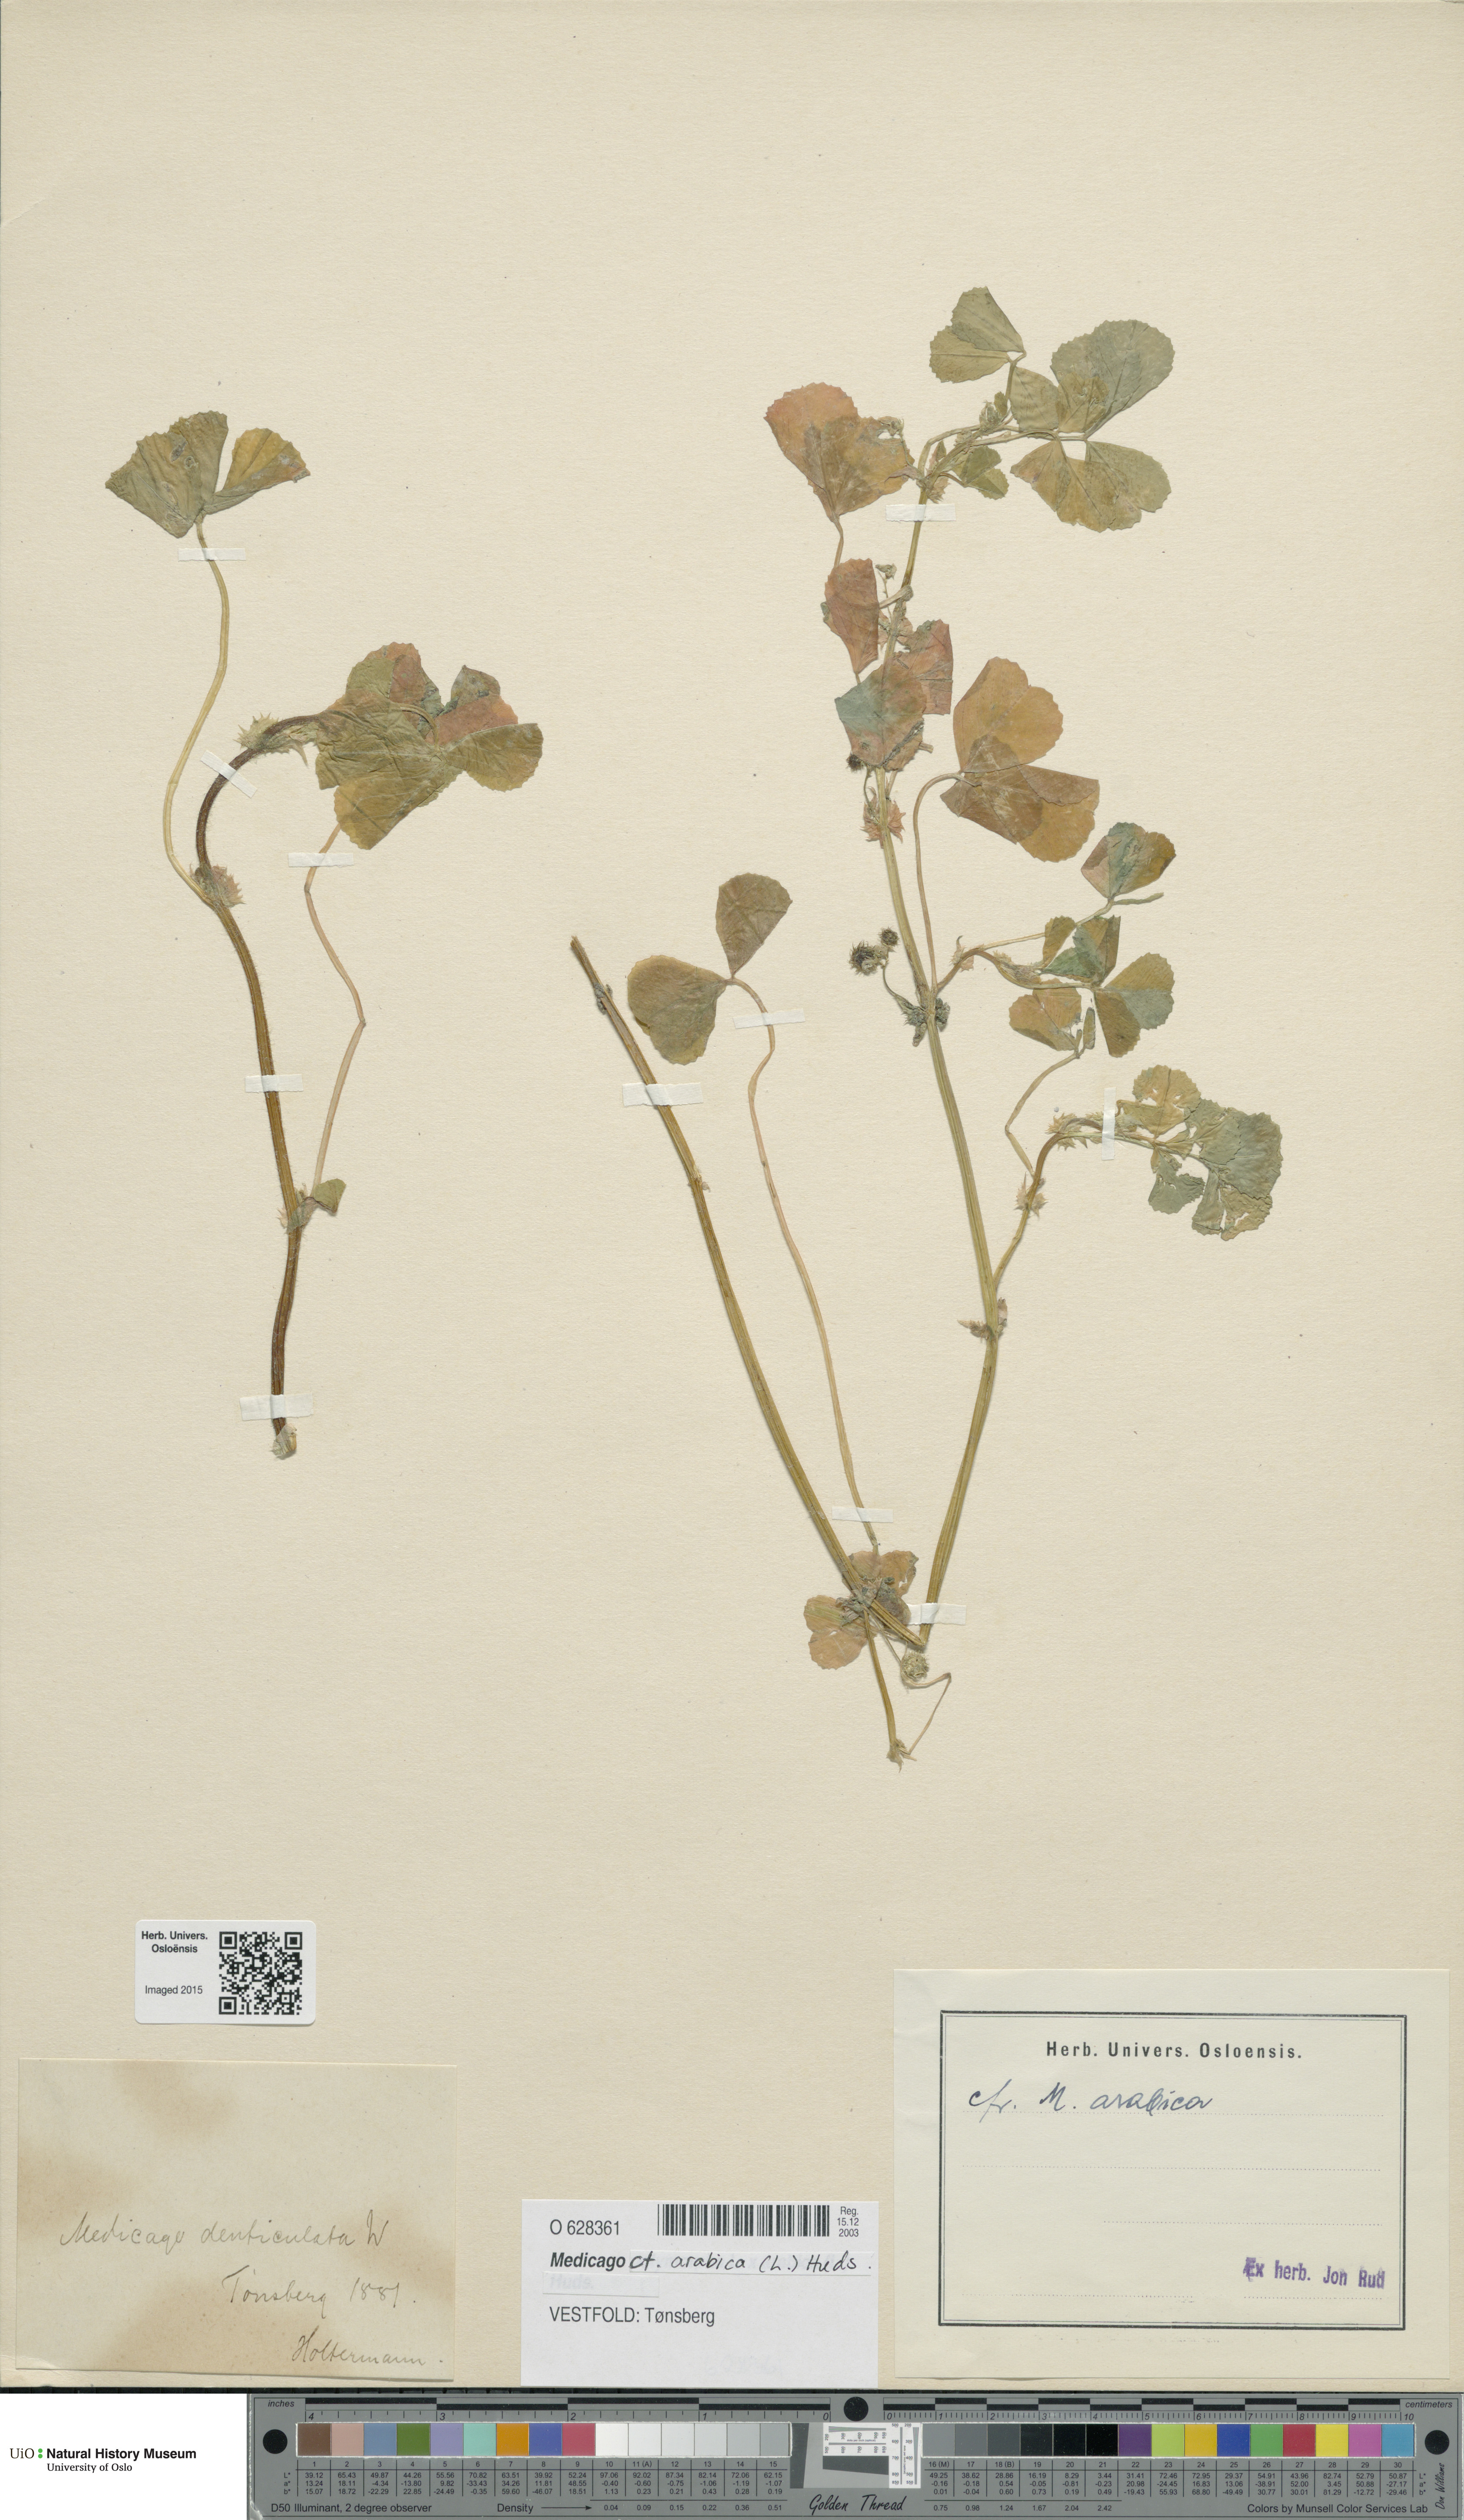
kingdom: Plantae
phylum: Tracheophyta
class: Magnoliopsida
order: Fabales
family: Fabaceae
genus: Medicago
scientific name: Medicago arabica
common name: Spotted medick
